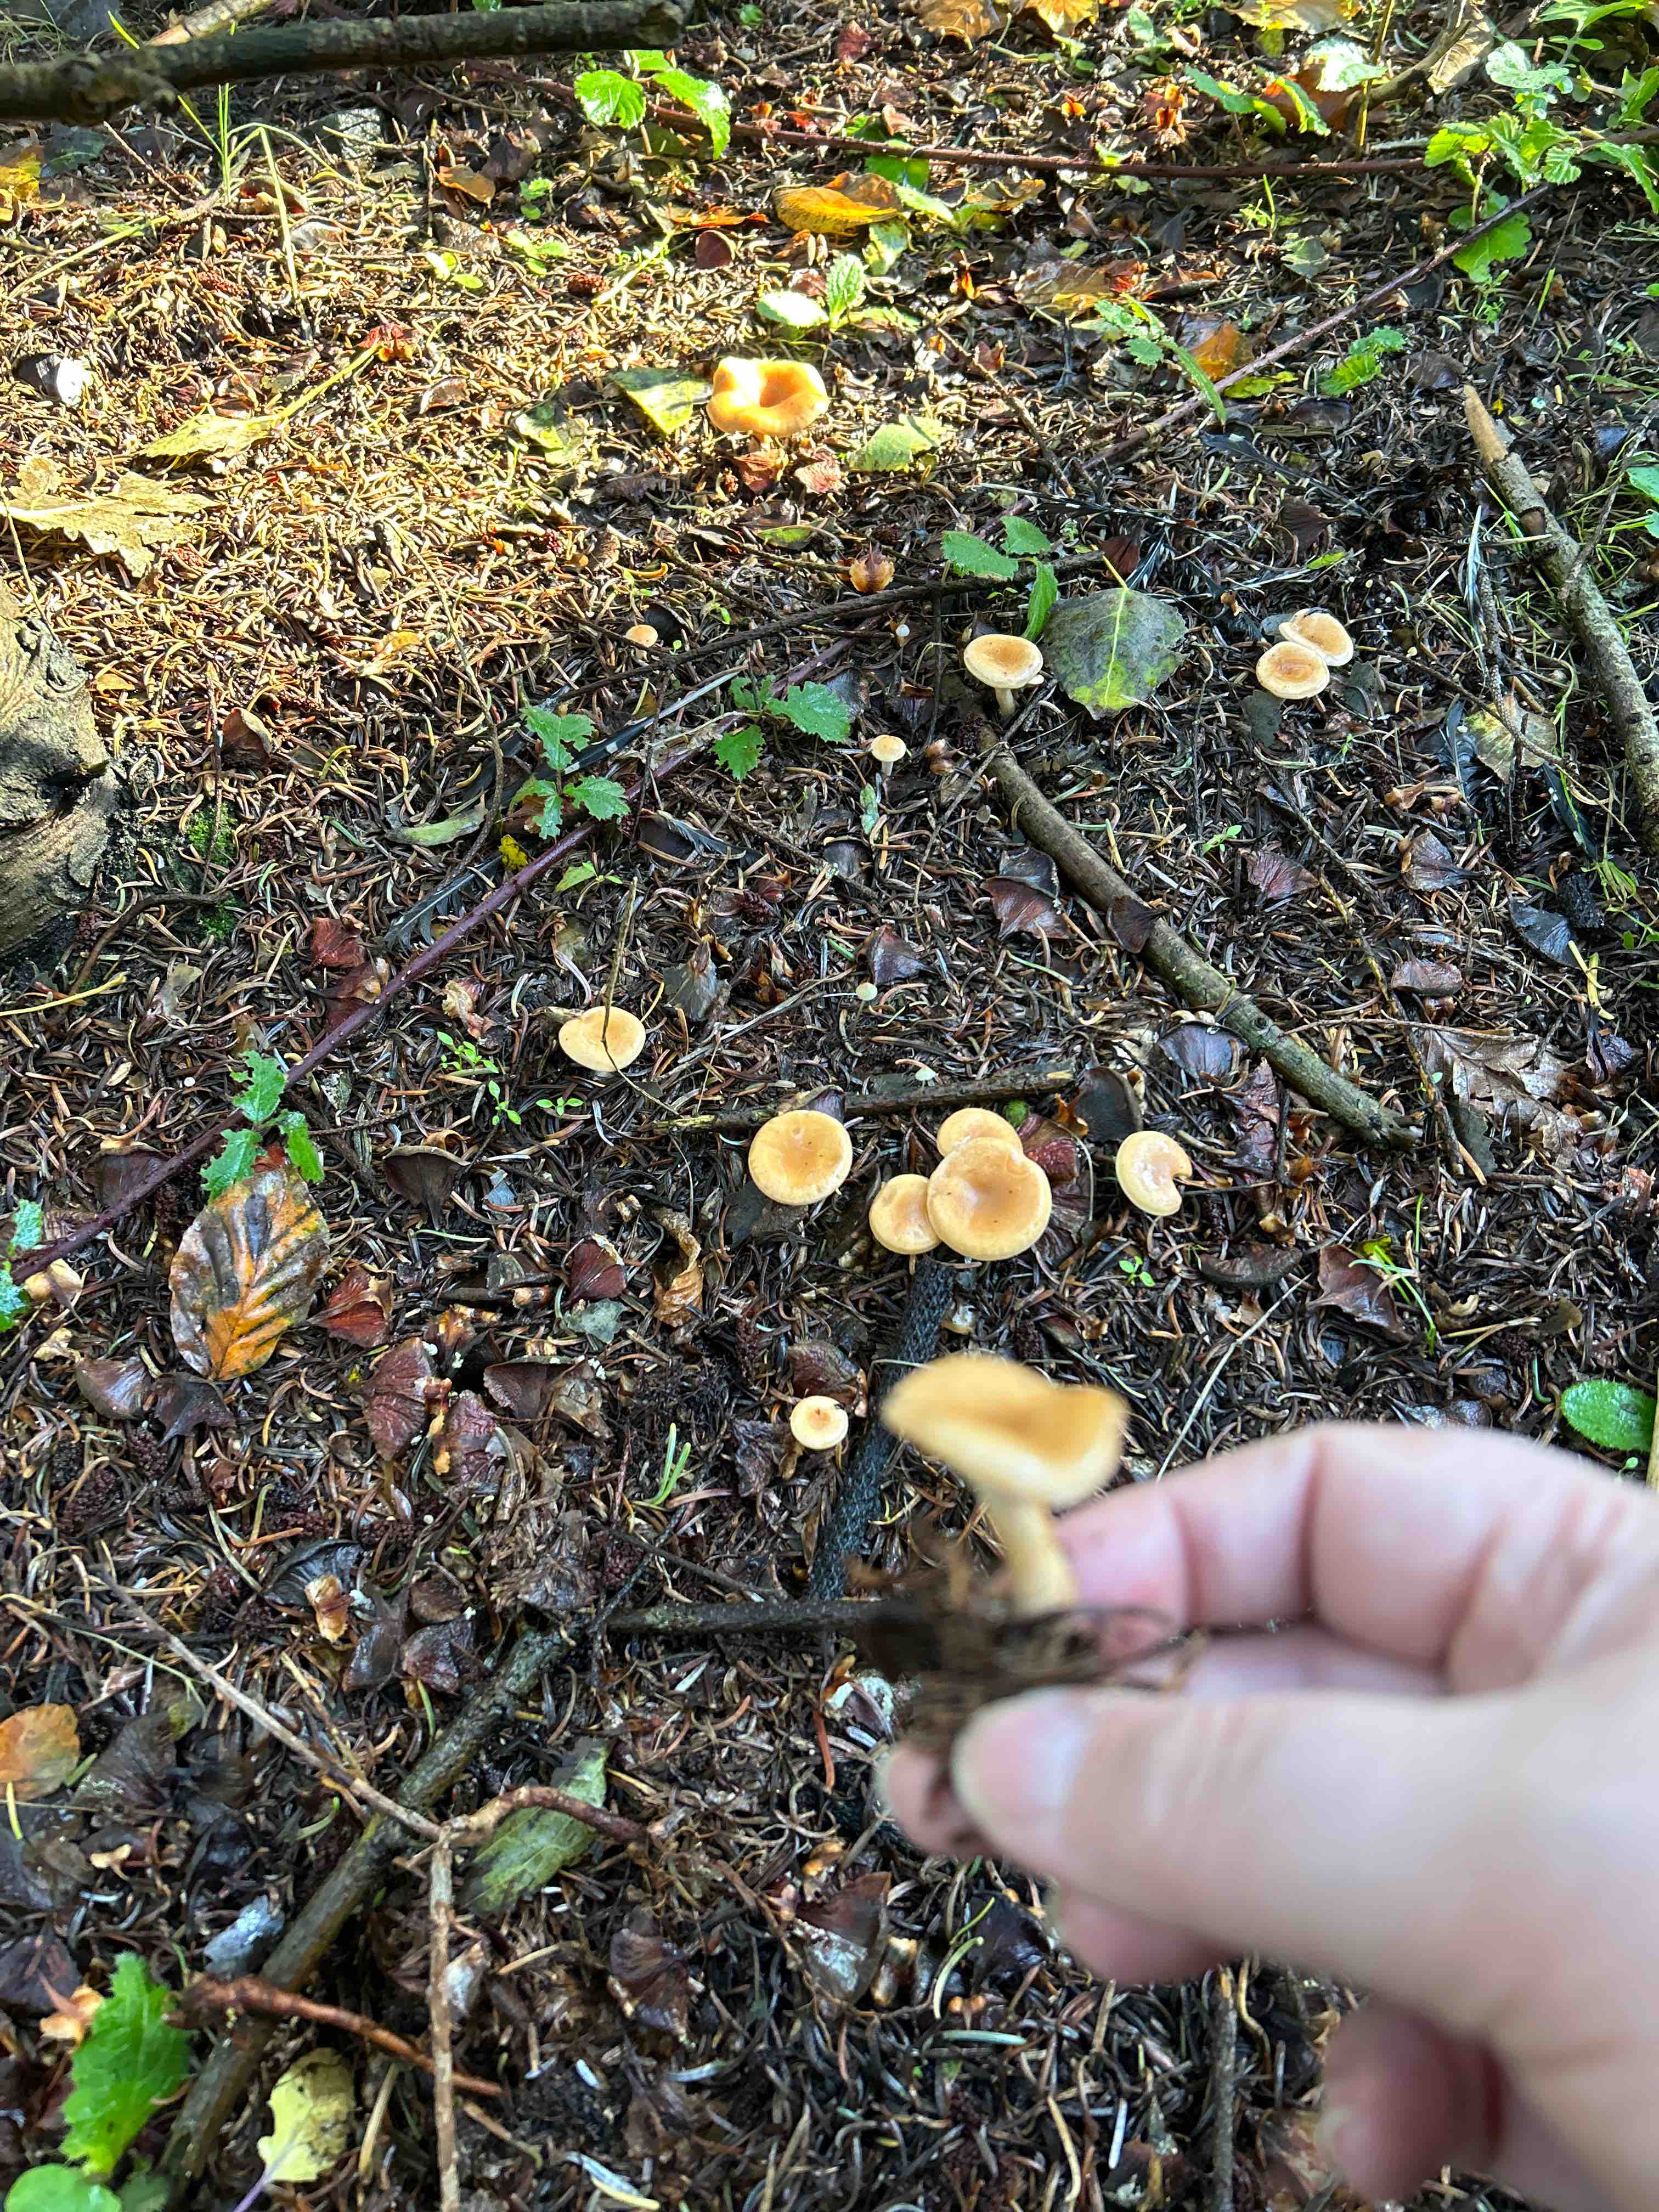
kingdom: Fungi
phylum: Basidiomycota
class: Agaricomycetes
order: Agaricales
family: Tricholomataceae
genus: Paralepista
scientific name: Paralepista
